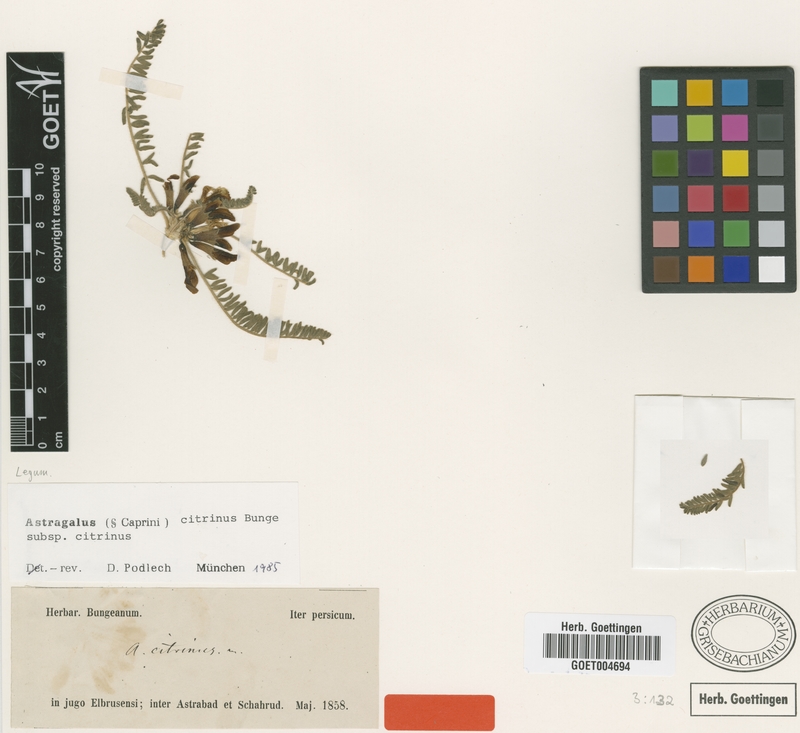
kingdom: Plantae
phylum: Tracheophyta
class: Magnoliopsida
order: Fabales
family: Fabaceae
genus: Astragalus
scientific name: Astragalus citrinus
